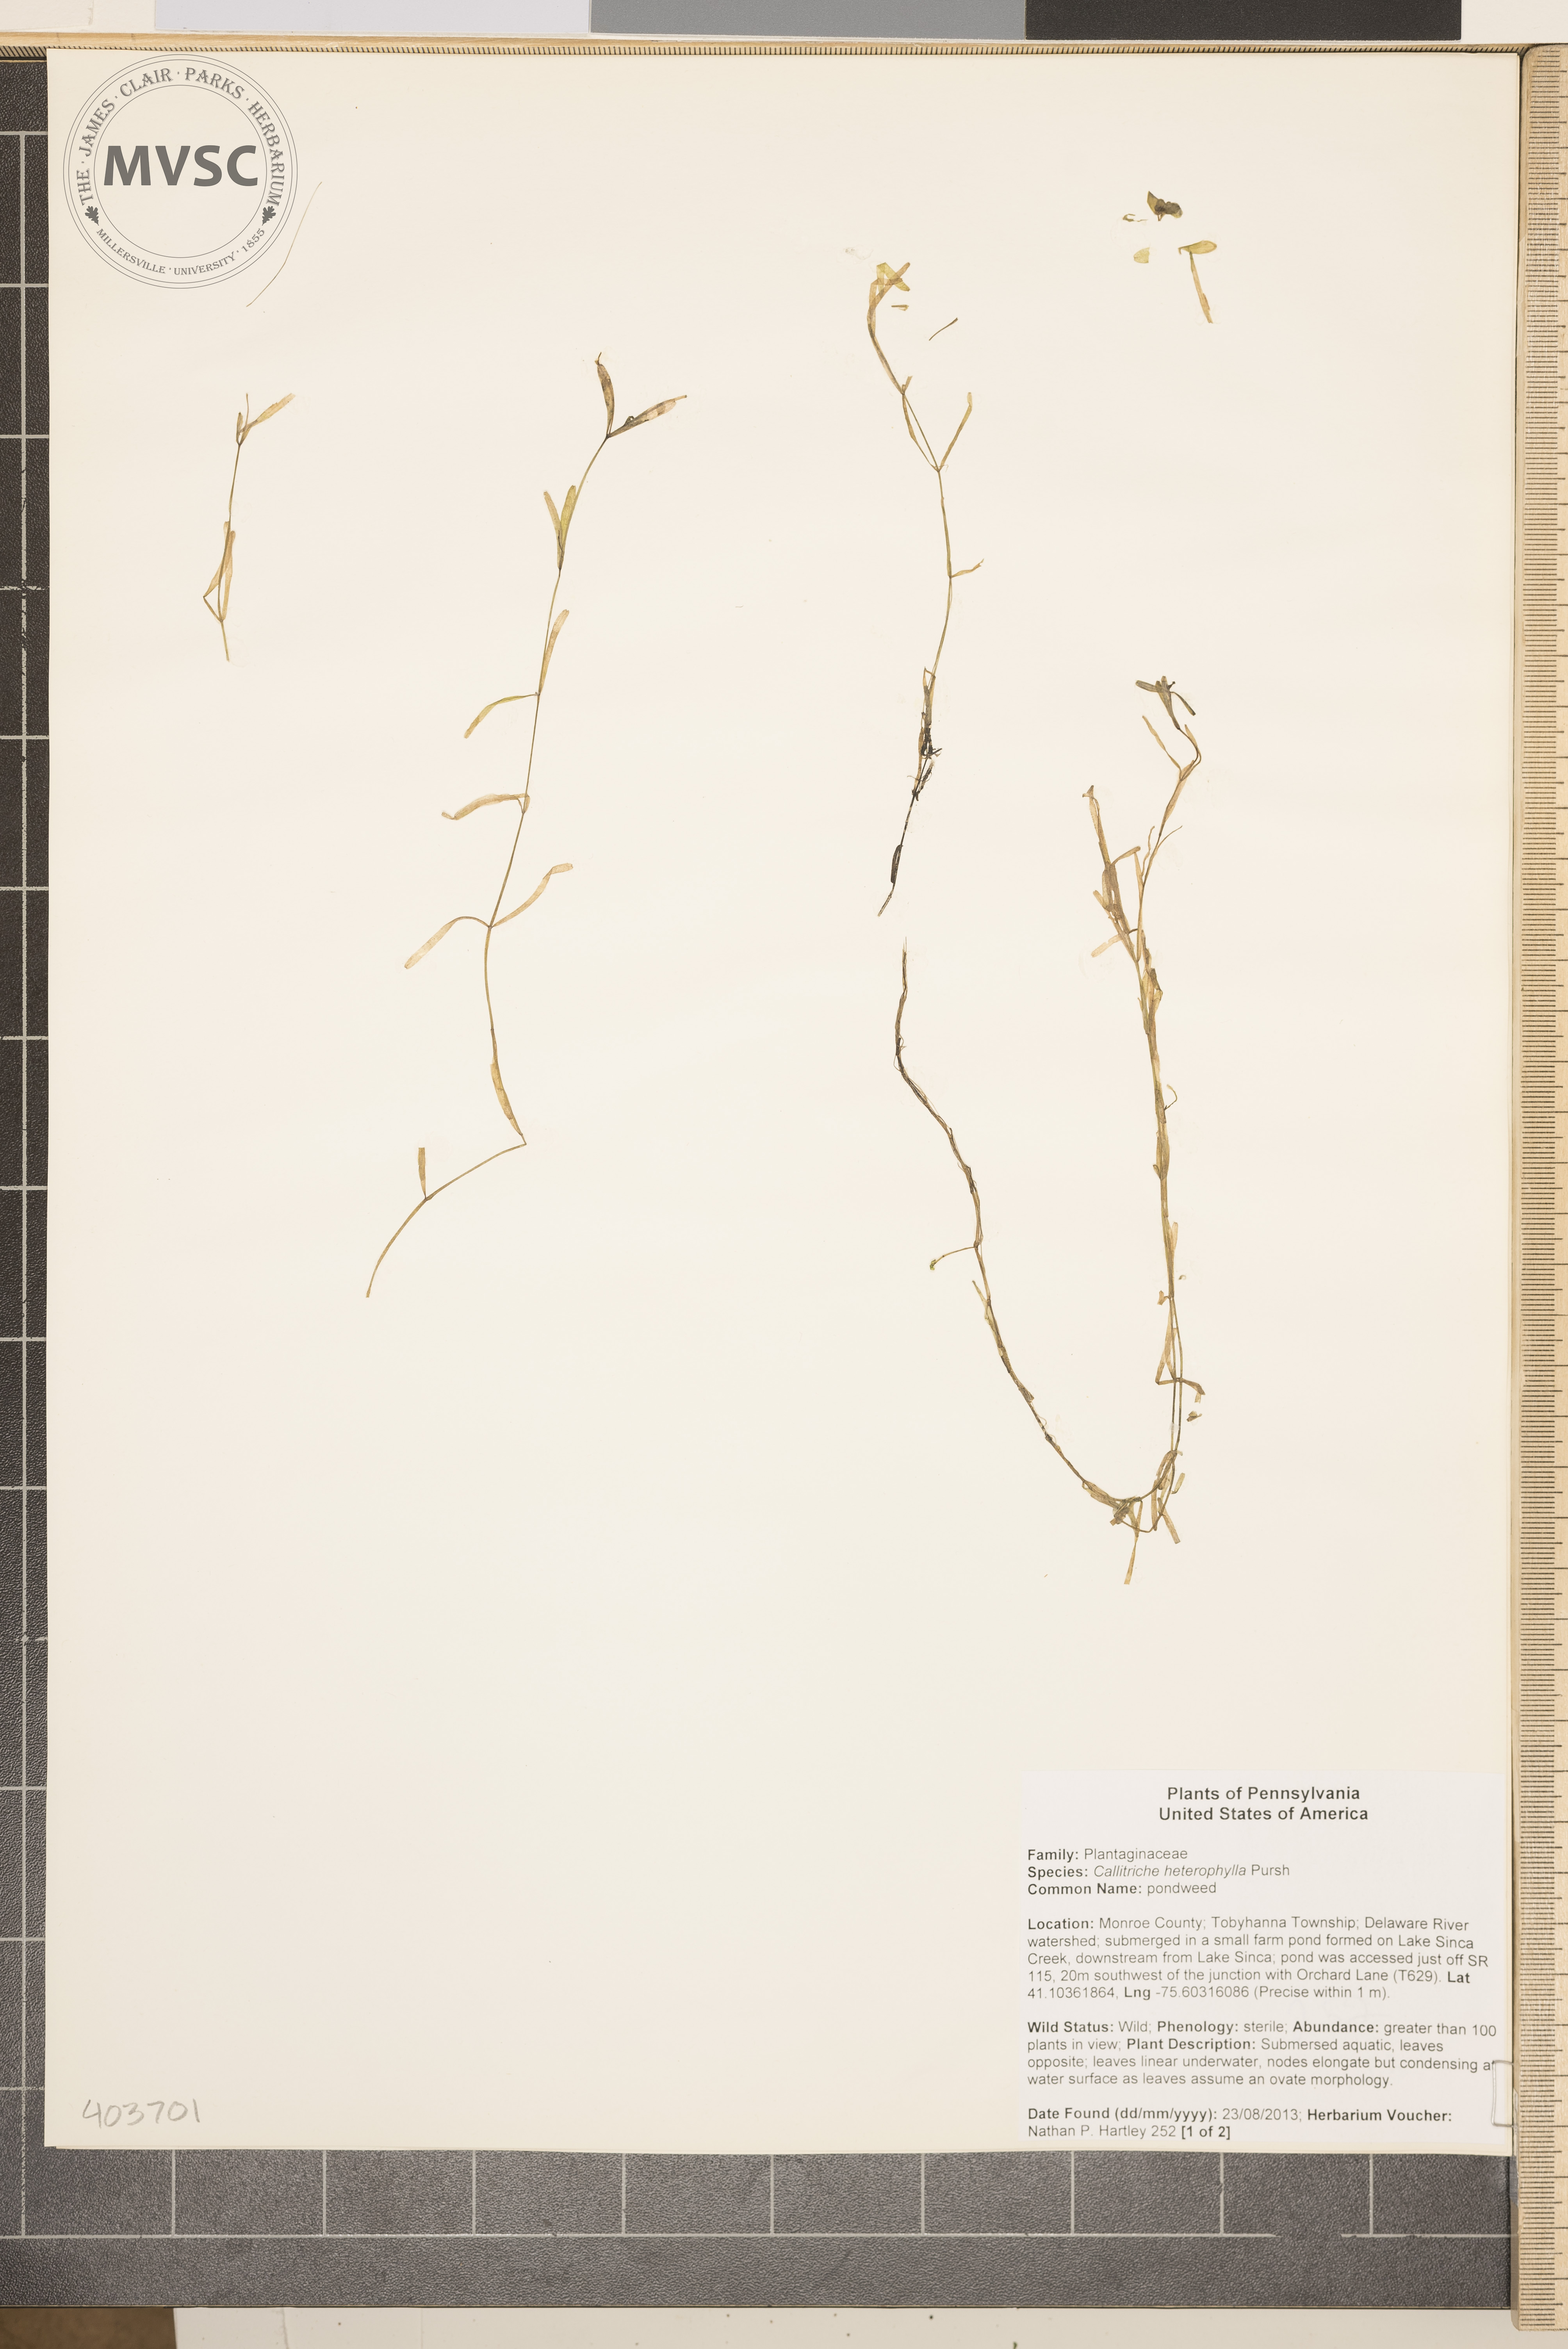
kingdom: Plantae
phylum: Tracheophyta
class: Magnoliopsida
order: Lamiales
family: Plantaginaceae
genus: Callitriche
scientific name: Callitriche heterophylla
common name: water-starwort
